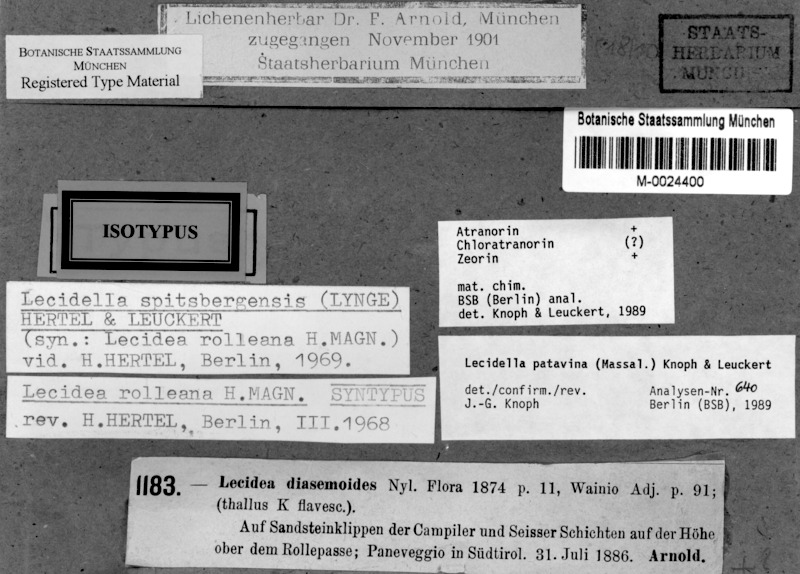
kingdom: Fungi
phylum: Ascomycota
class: Lecanoromycetes
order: Lecanorales
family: Lecanoraceae
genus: Lecidella
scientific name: Lecidella patavina
